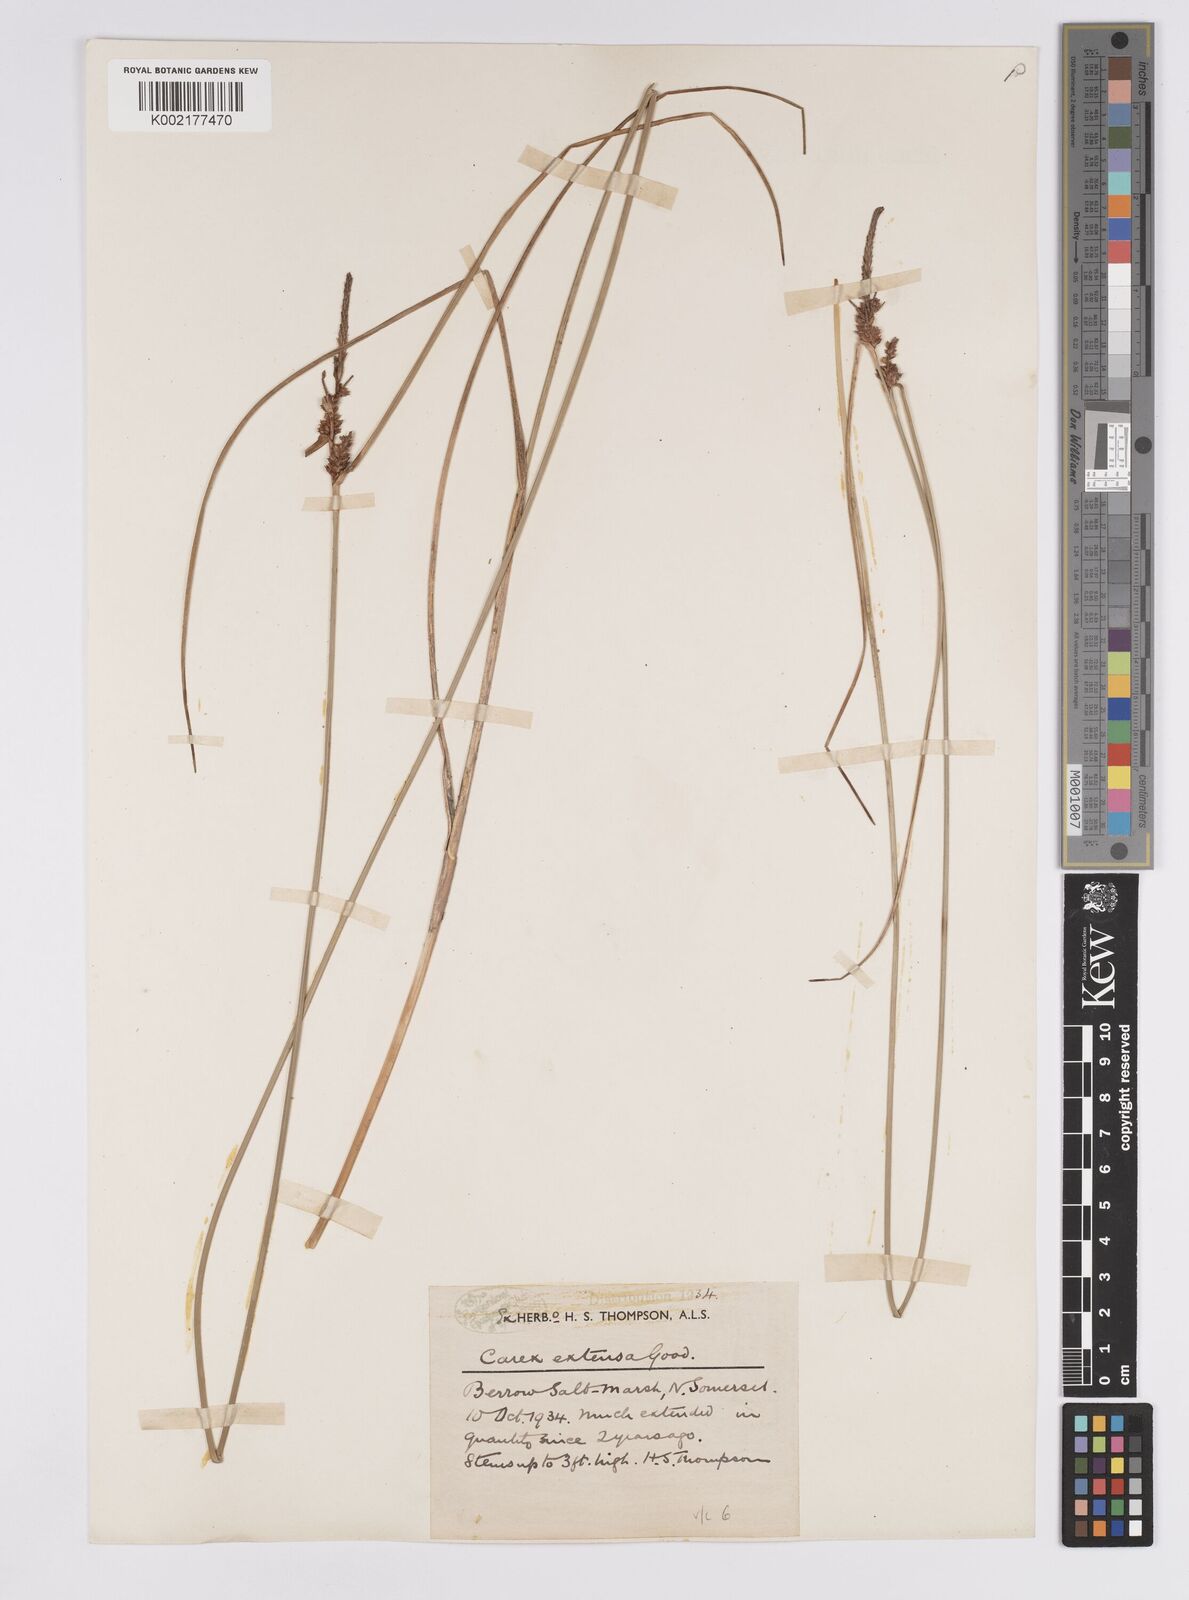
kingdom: Plantae
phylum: Tracheophyta
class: Liliopsida
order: Poales
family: Cyperaceae
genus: Carex
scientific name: Carex extensa
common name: Long-bracted sedge
